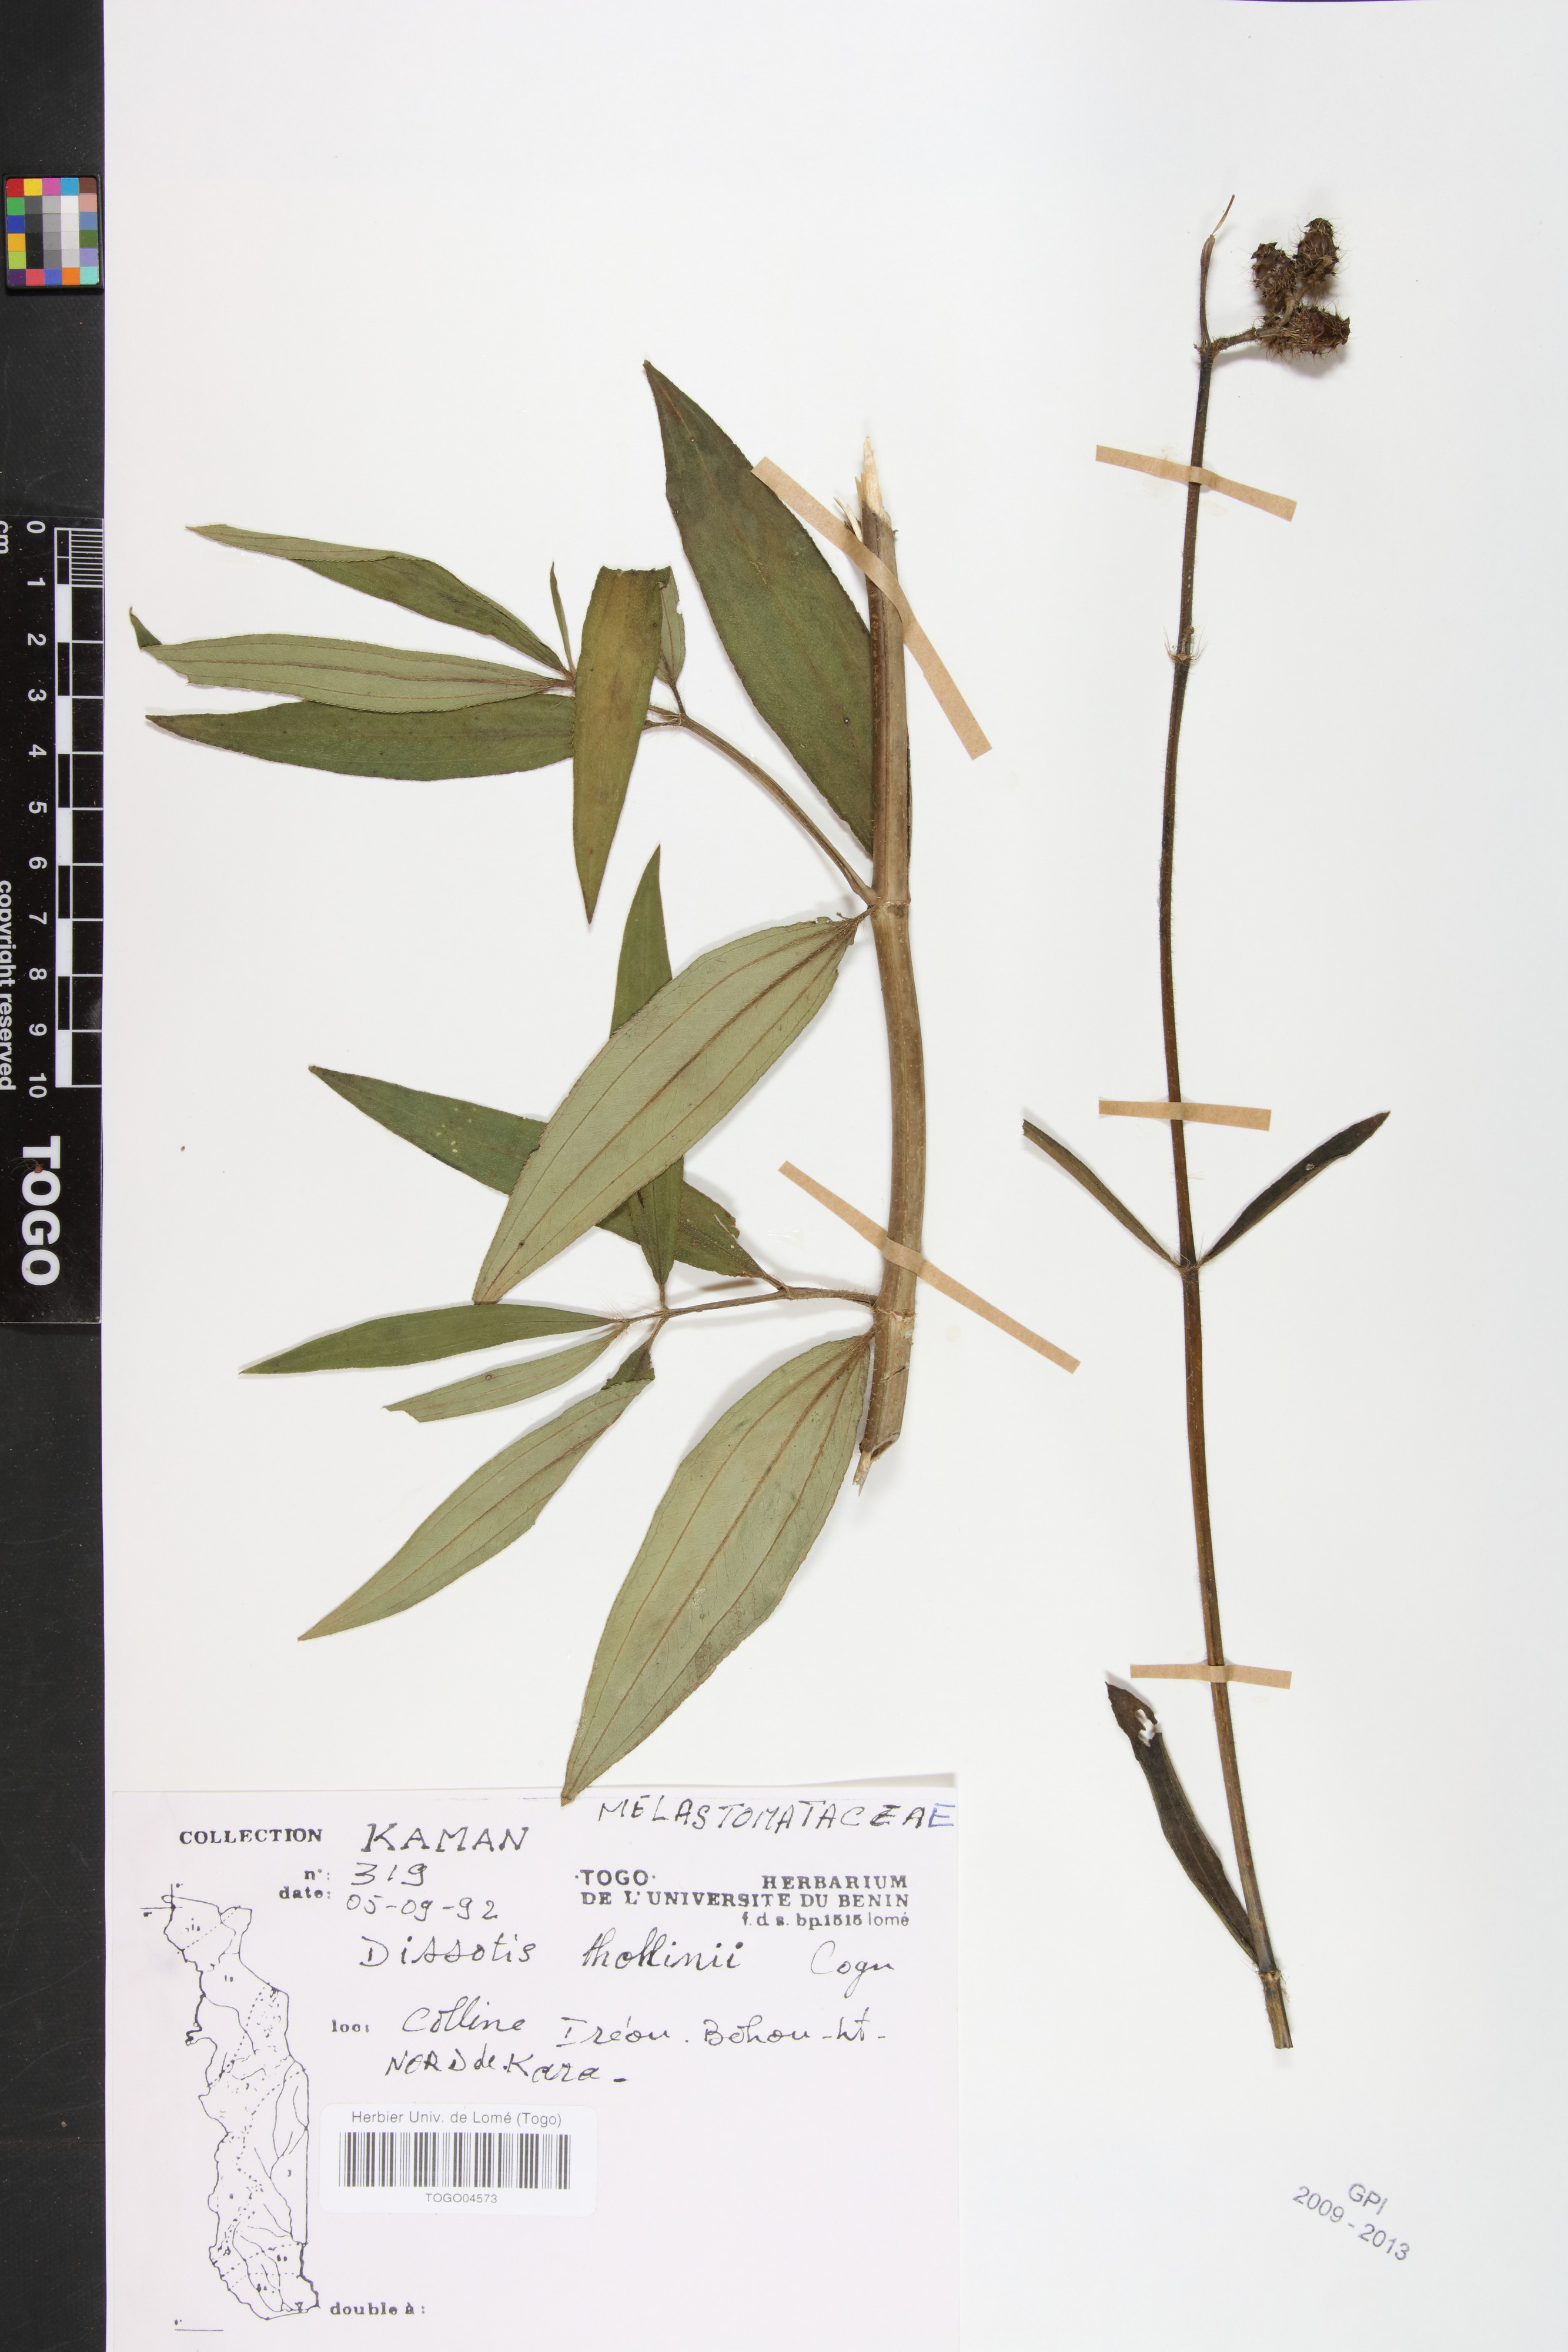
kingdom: Plantae
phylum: Tracheophyta
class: Magnoliopsida
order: Myrtales
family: Melastomataceae
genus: Rosettea
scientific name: Rosettea thollonii
